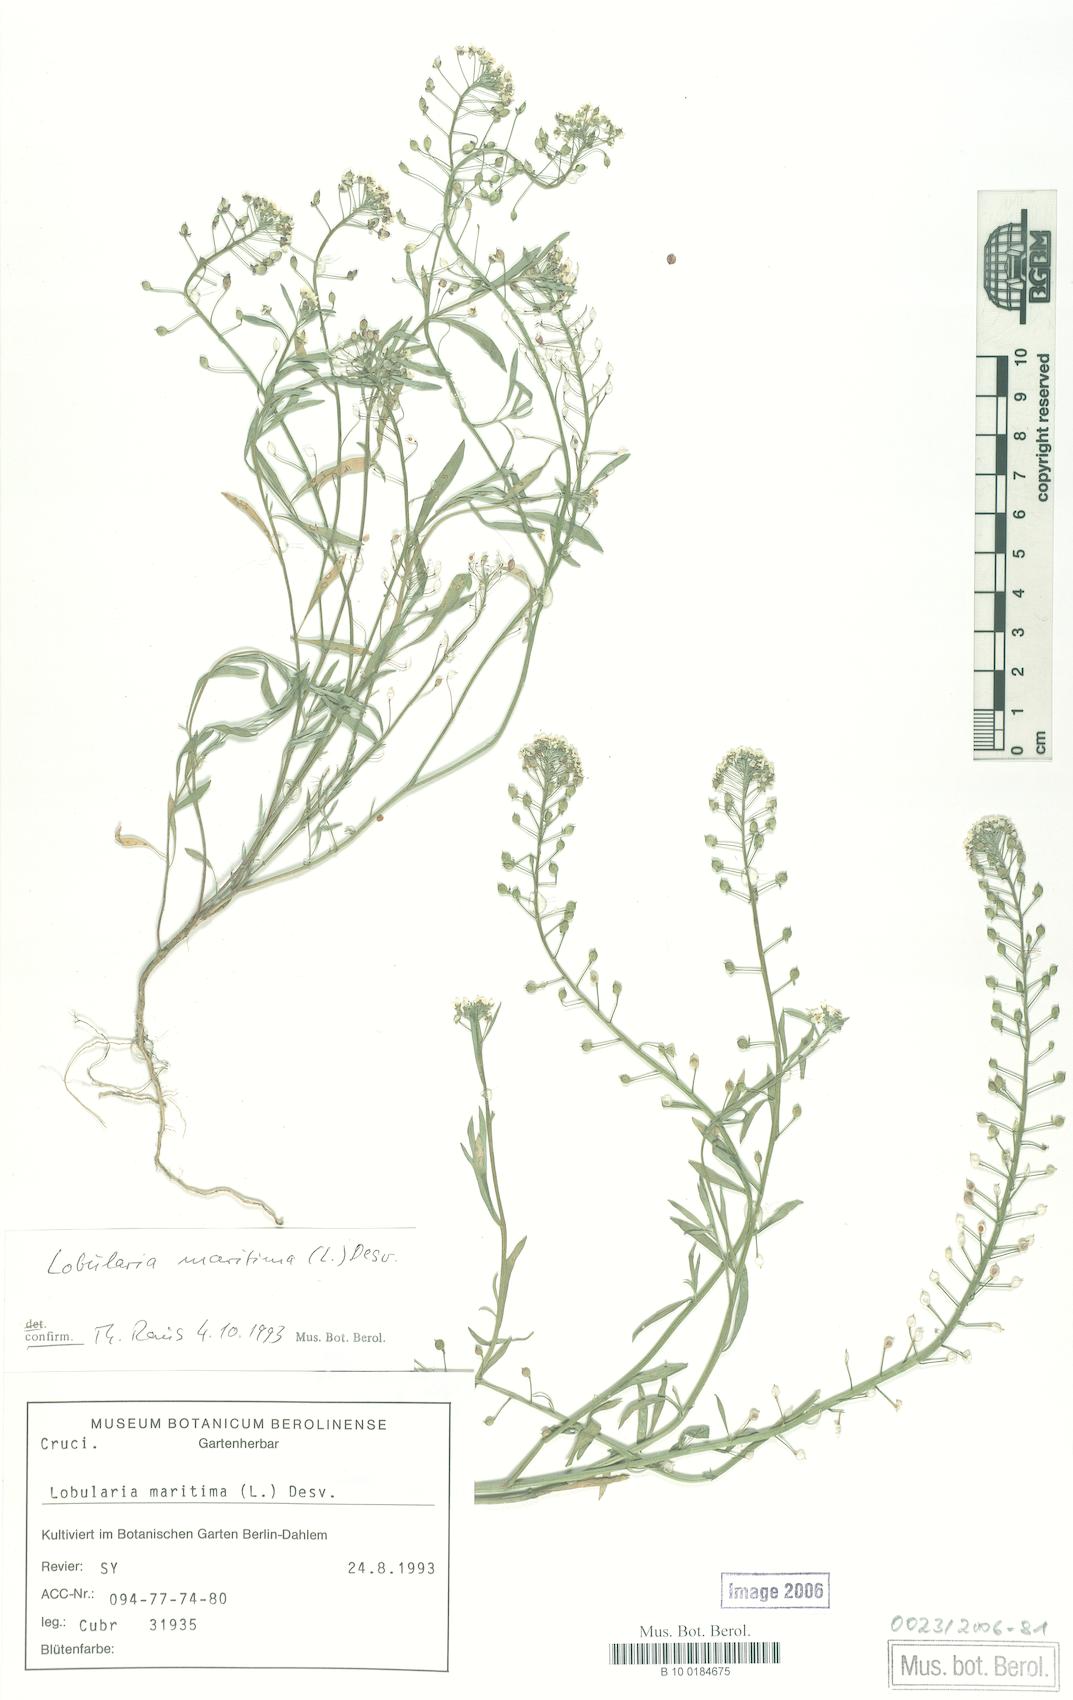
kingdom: Plantae
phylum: Tracheophyta
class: Magnoliopsida
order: Brassicales
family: Brassicaceae
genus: Lobularia
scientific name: Lobularia maritima
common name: Sweet alison
